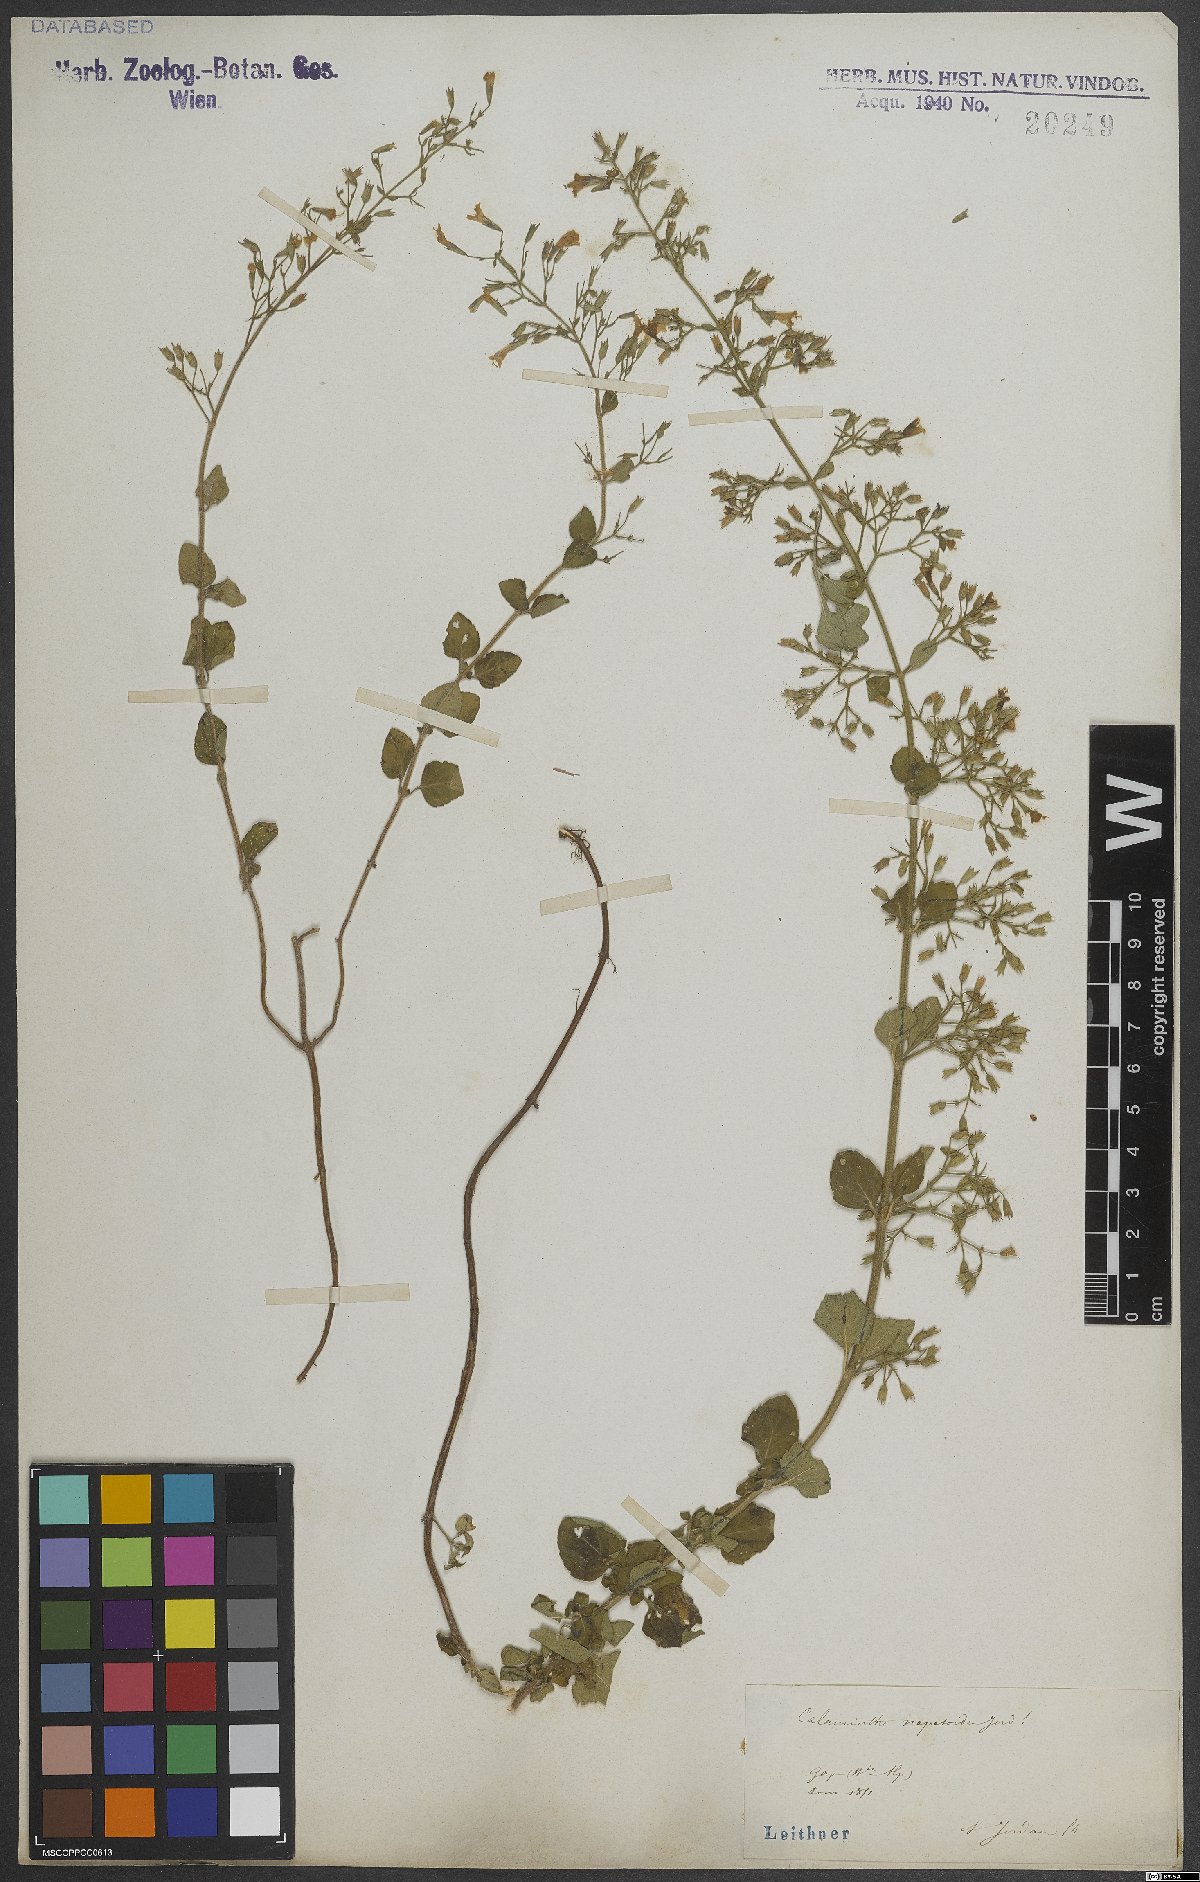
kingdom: Plantae
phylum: Tracheophyta
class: Magnoliopsida
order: Lamiales
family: Lamiaceae
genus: Clinopodium
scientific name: Clinopodium nepeta
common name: Lesser calamint
